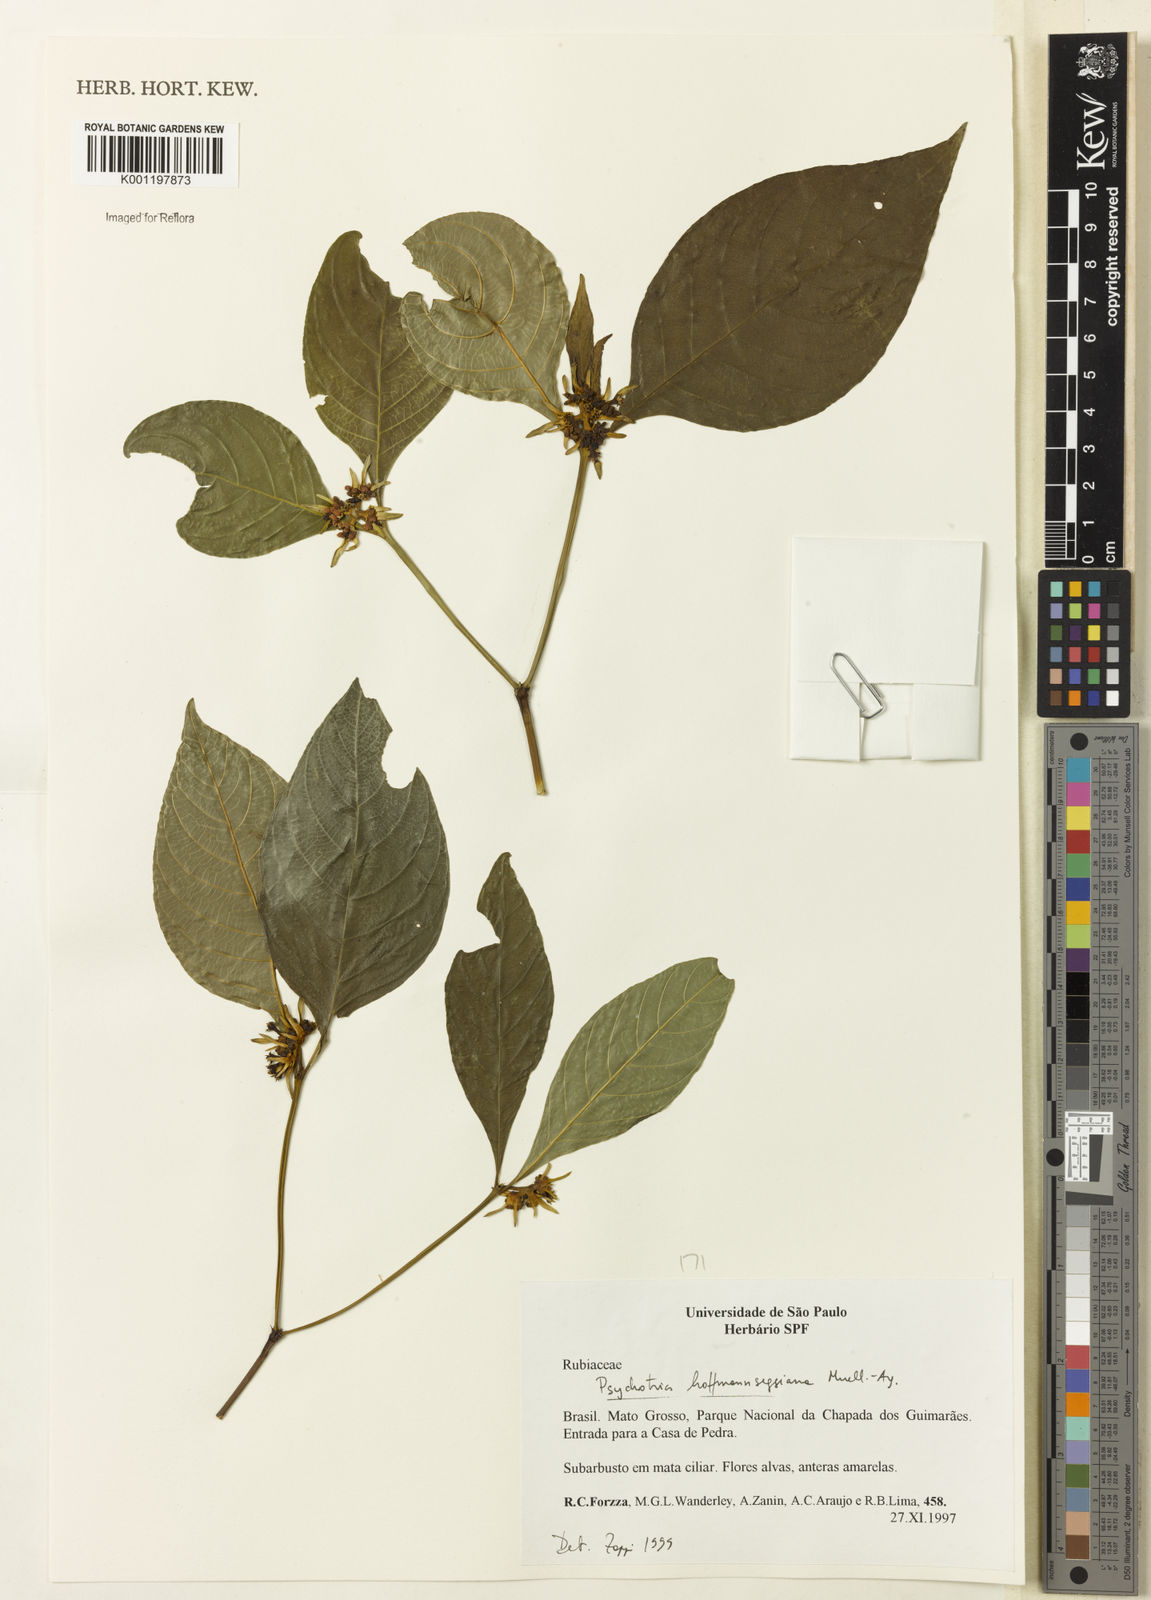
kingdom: Plantae
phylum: Tracheophyta
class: Magnoliopsida
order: Gentianales
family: Rubiaceae
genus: Psychotria
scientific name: Psychotria
